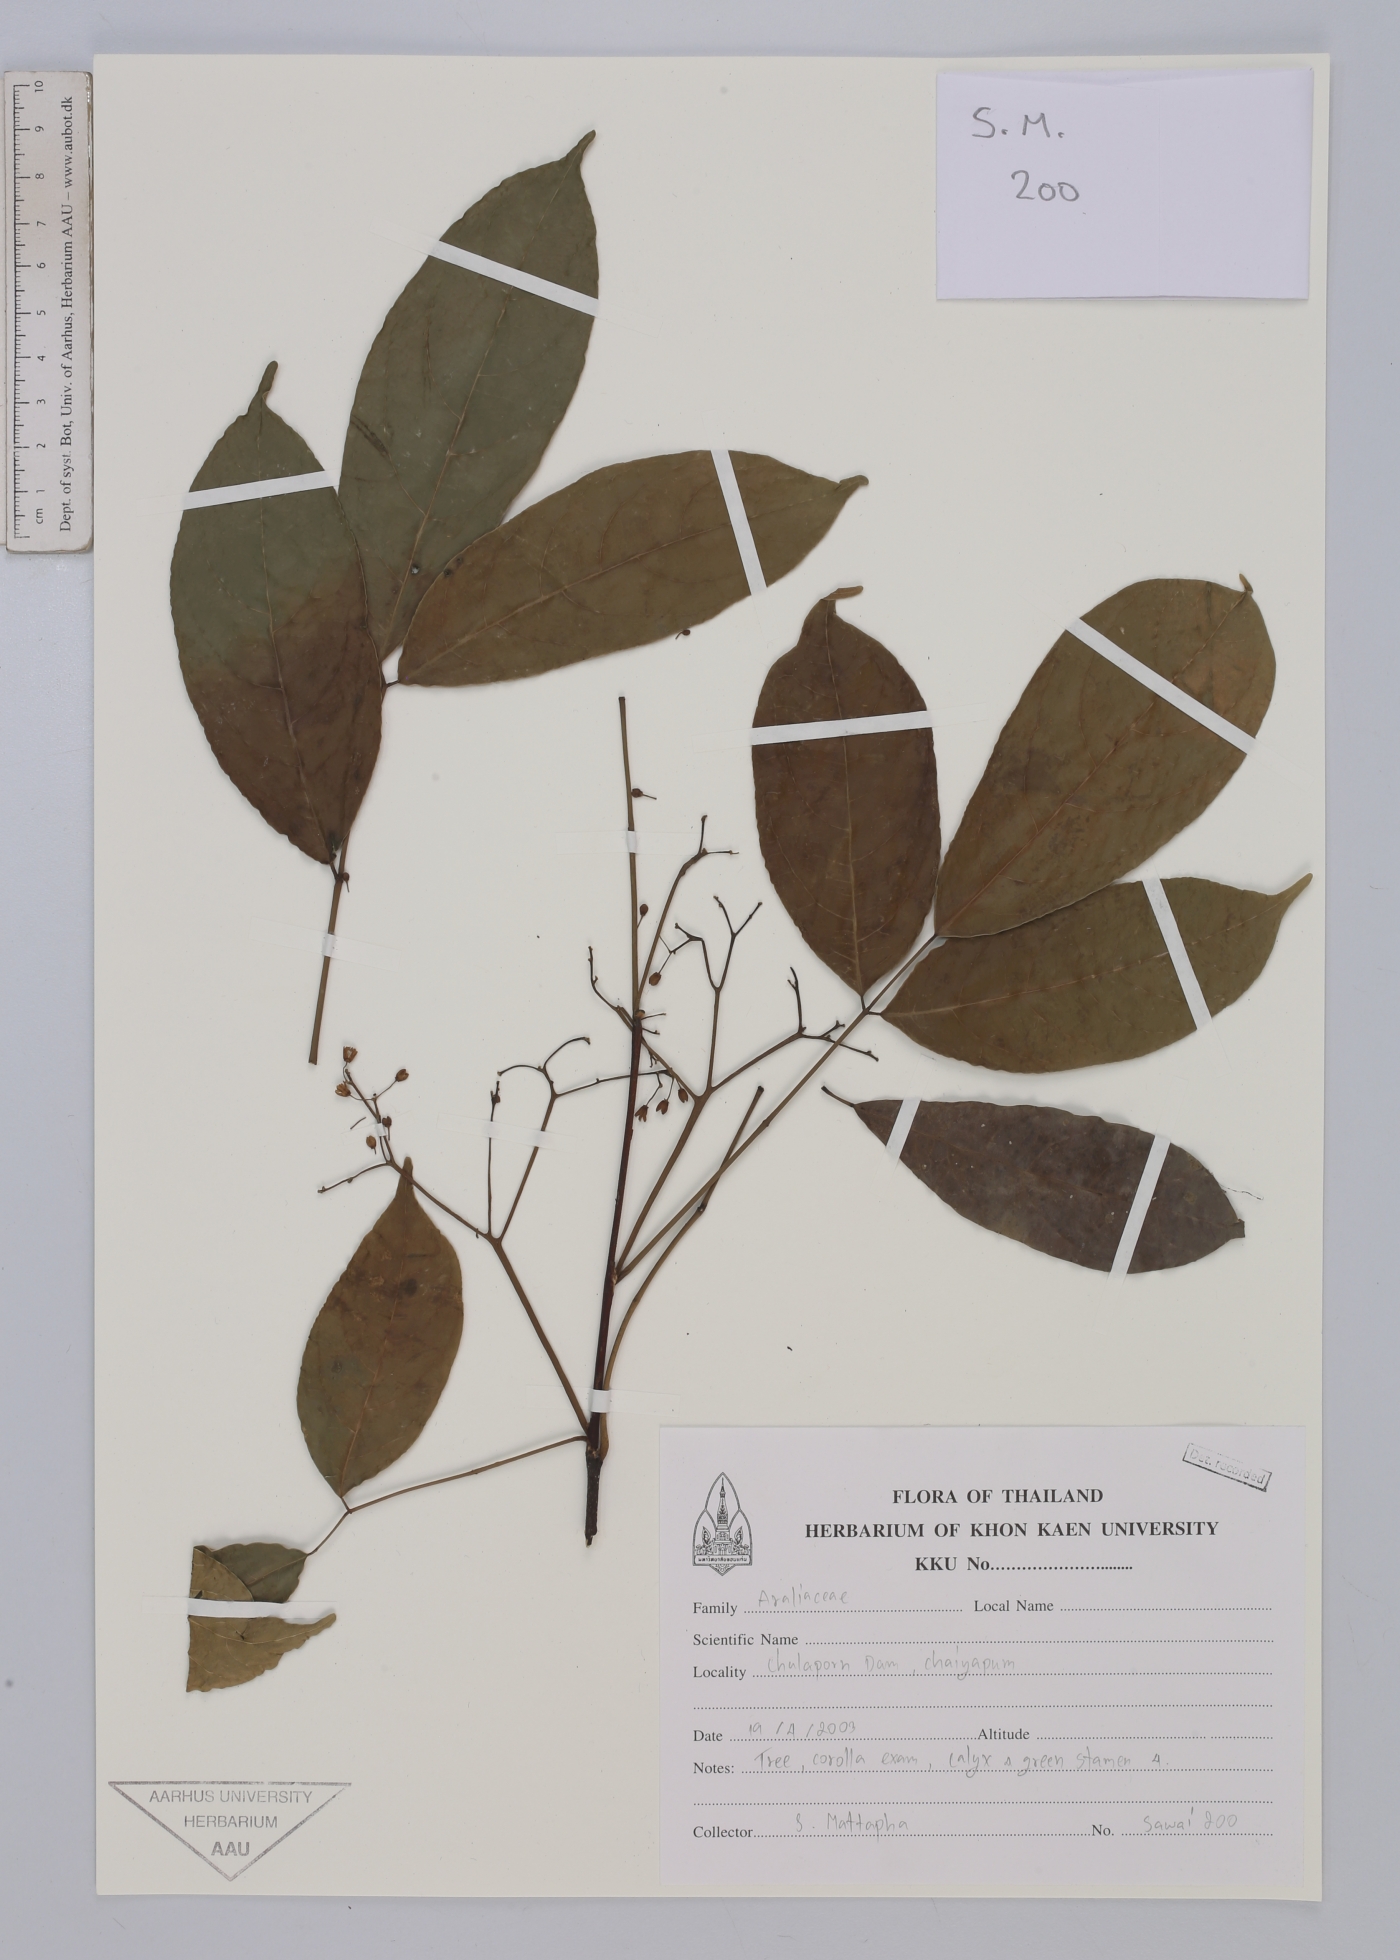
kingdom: Plantae
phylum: Tracheophyta
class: Magnoliopsida
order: Apiales
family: Araliaceae
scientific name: Araliaceae
